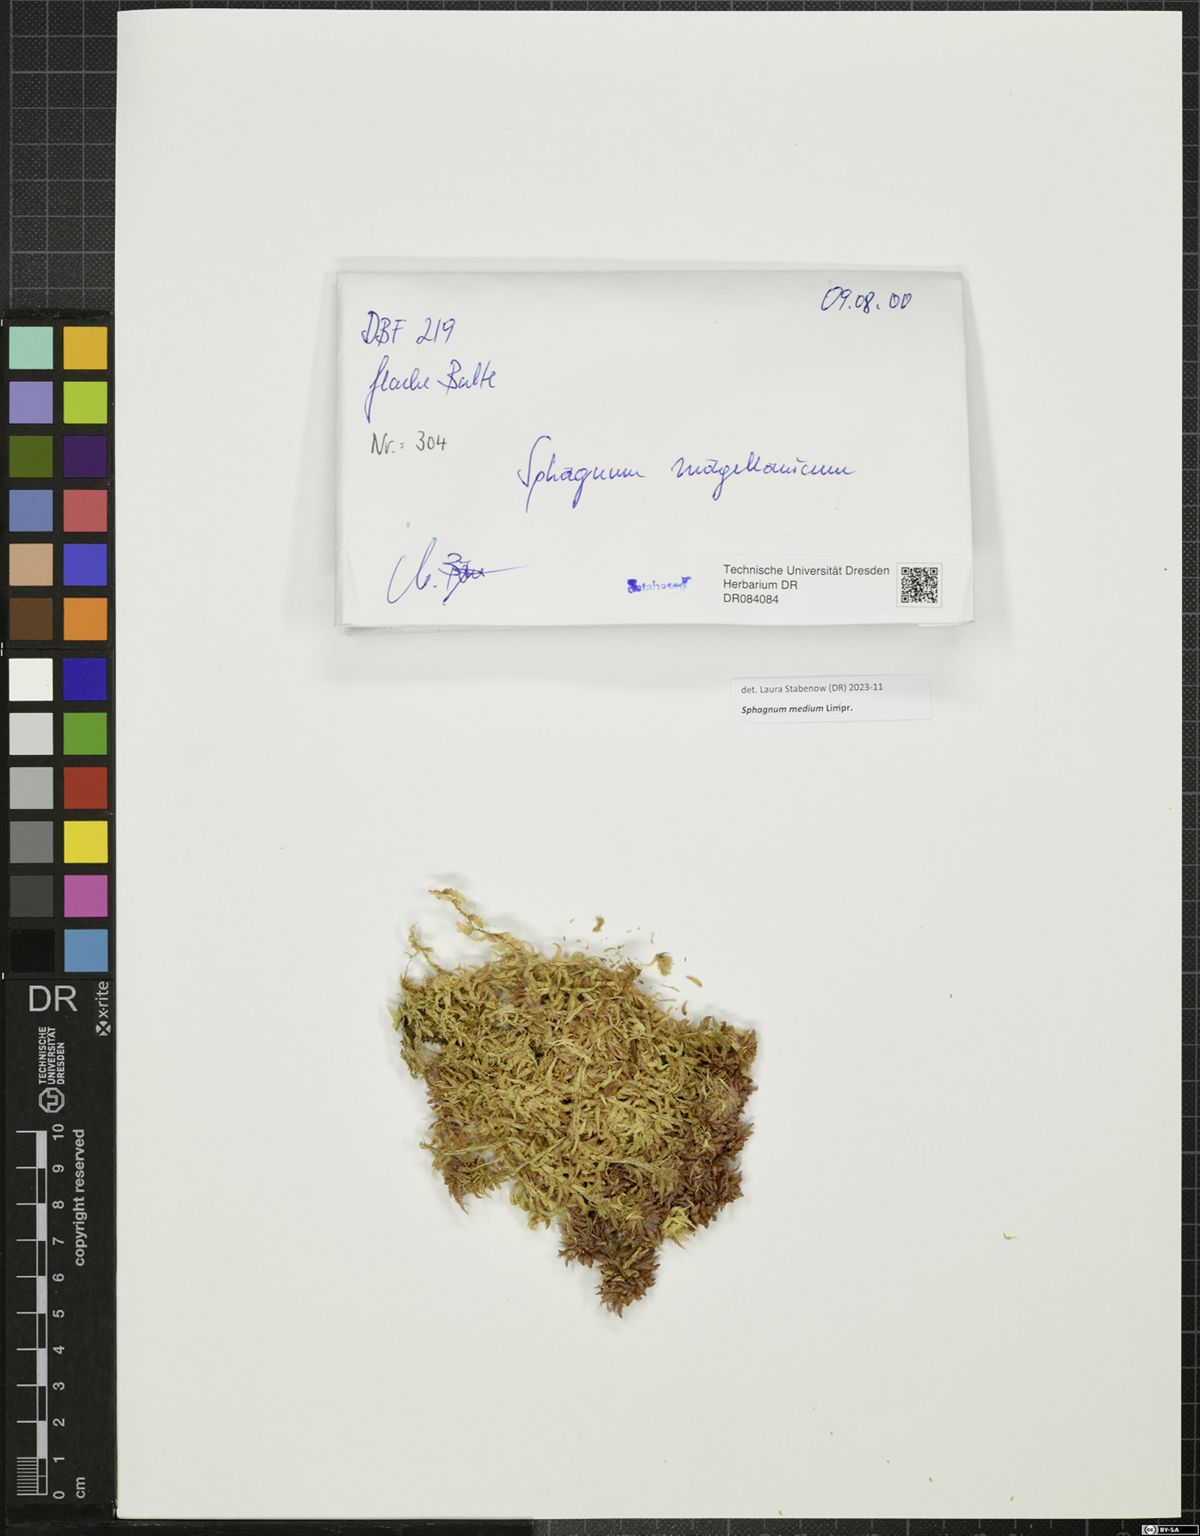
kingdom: Plantae
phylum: Bryophyta
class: Sphagnopsida
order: Sphagnales
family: Sphagnaceae
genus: Sphagnum
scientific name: Sphagnum medium
